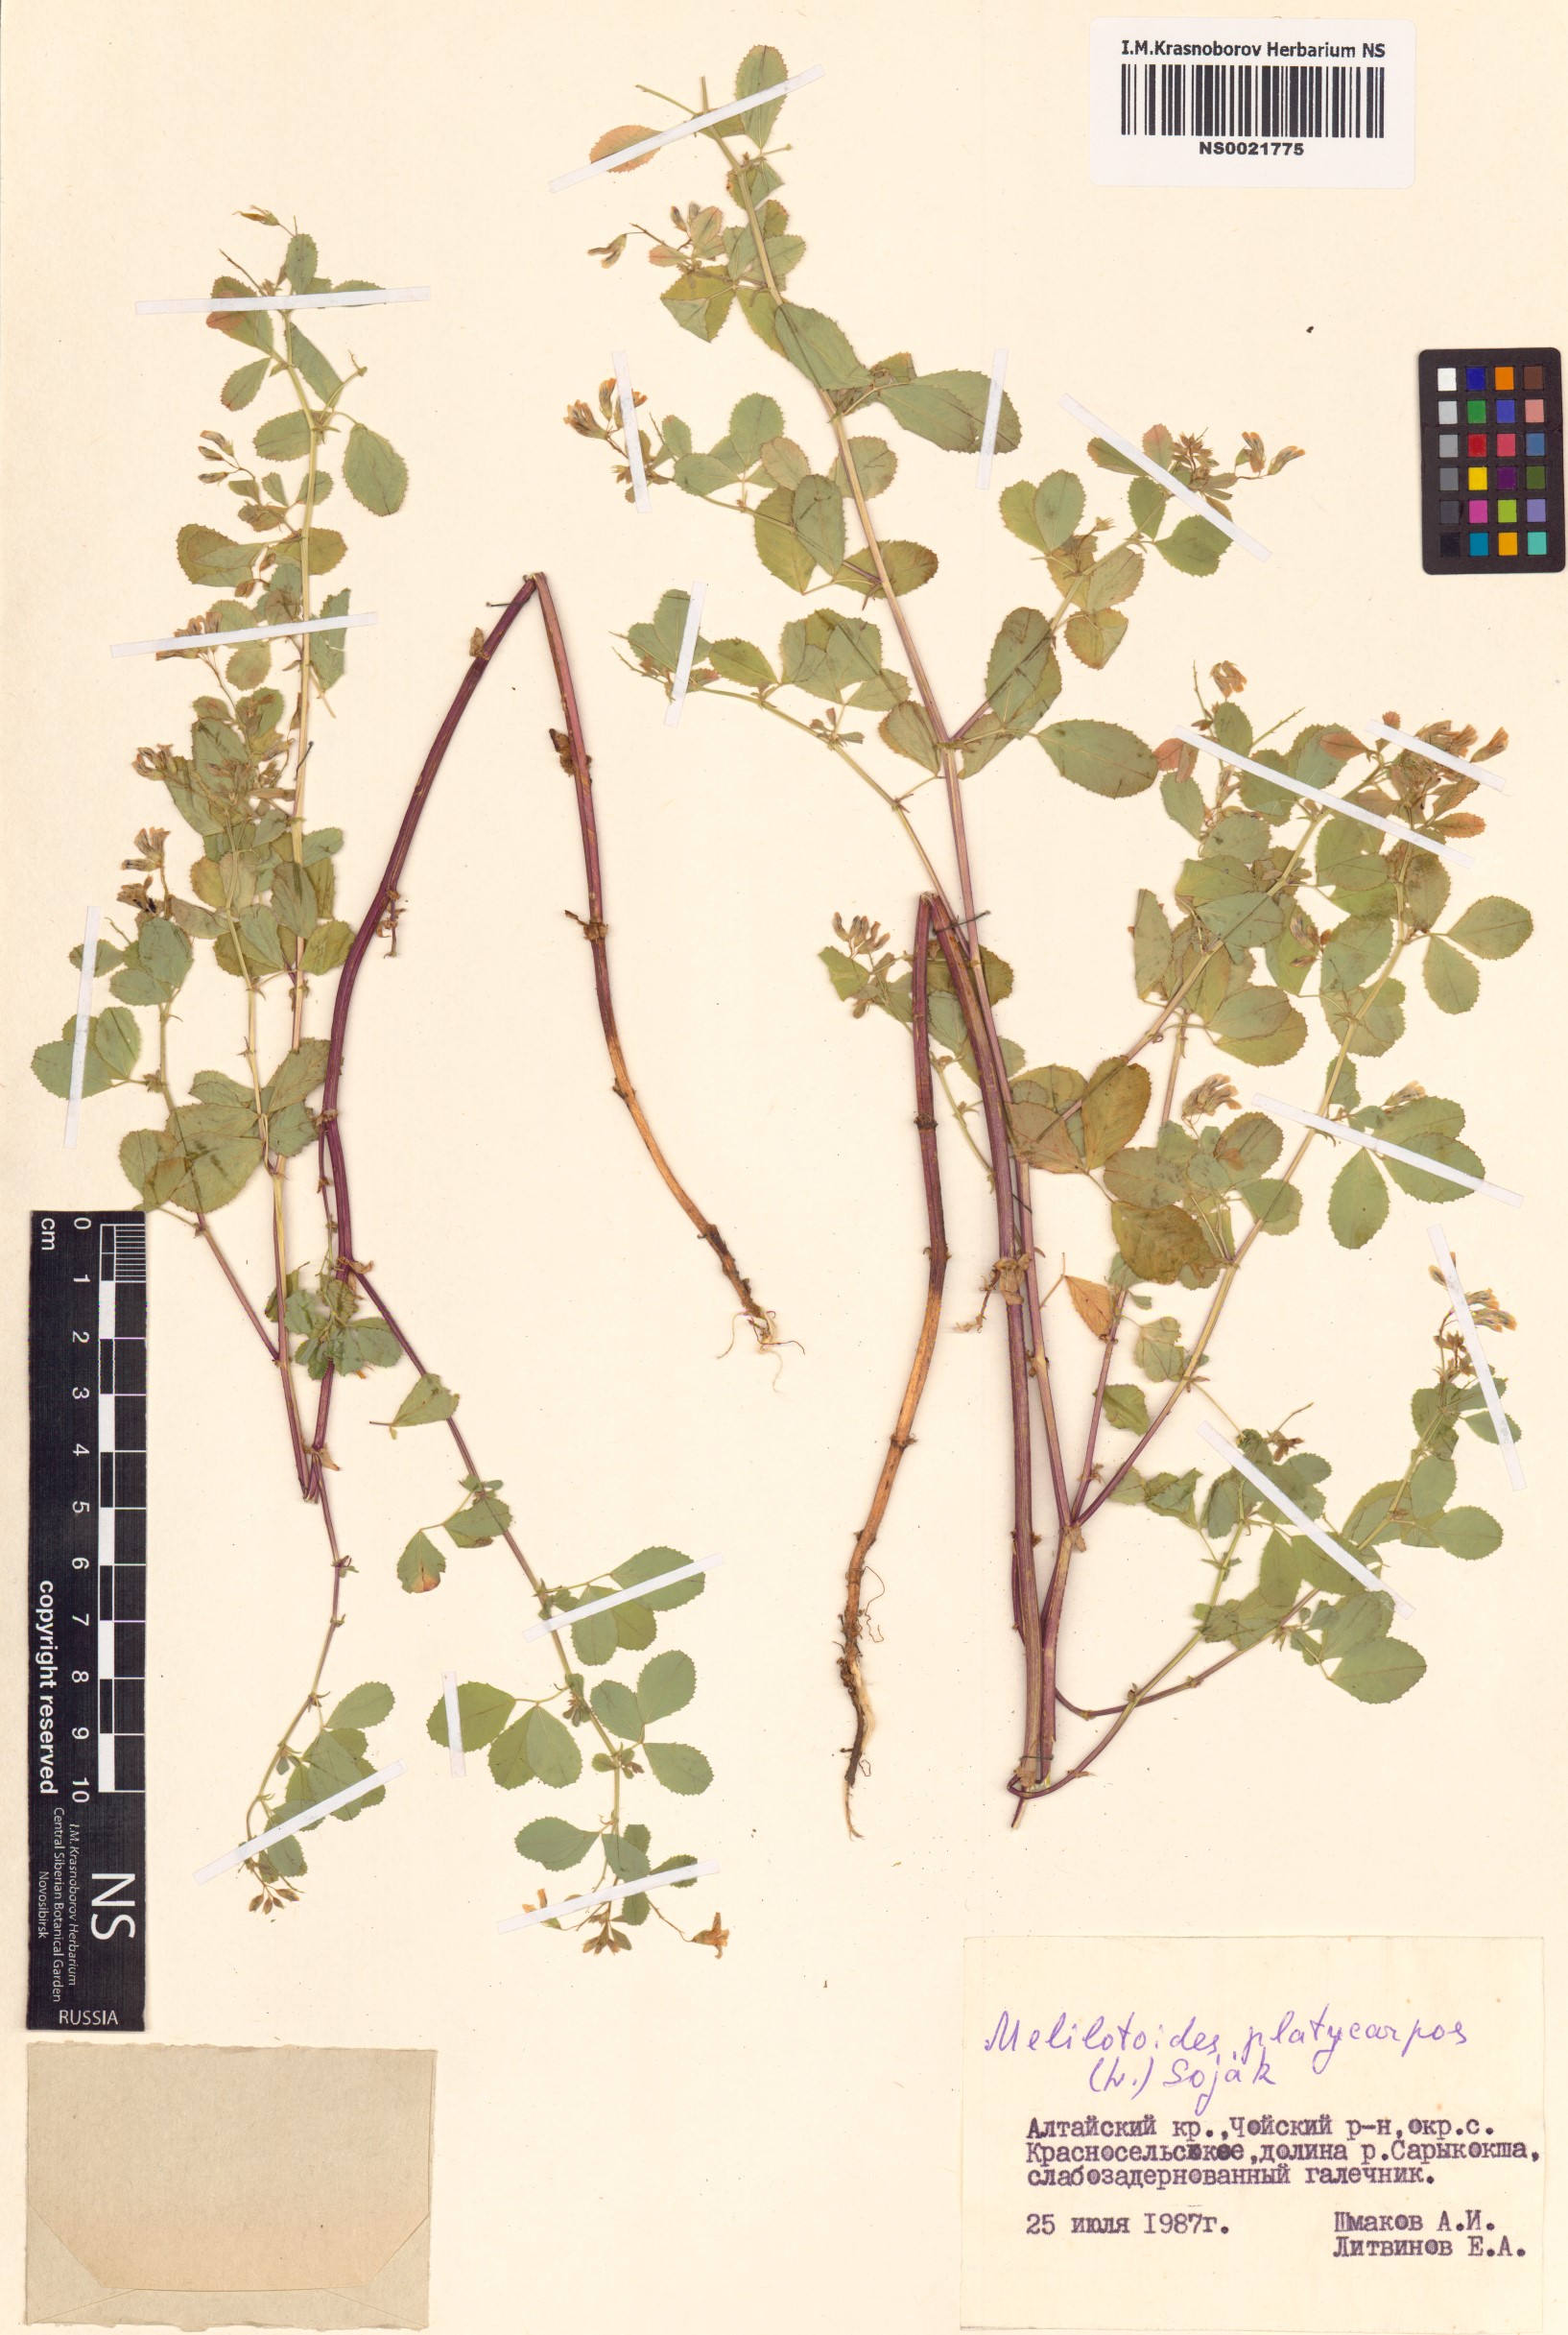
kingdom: Plantae
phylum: Tracheophyta
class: Magnoliopsida
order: Fabales
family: Fabaceae
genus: Medicago
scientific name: Medicago platycarpos
